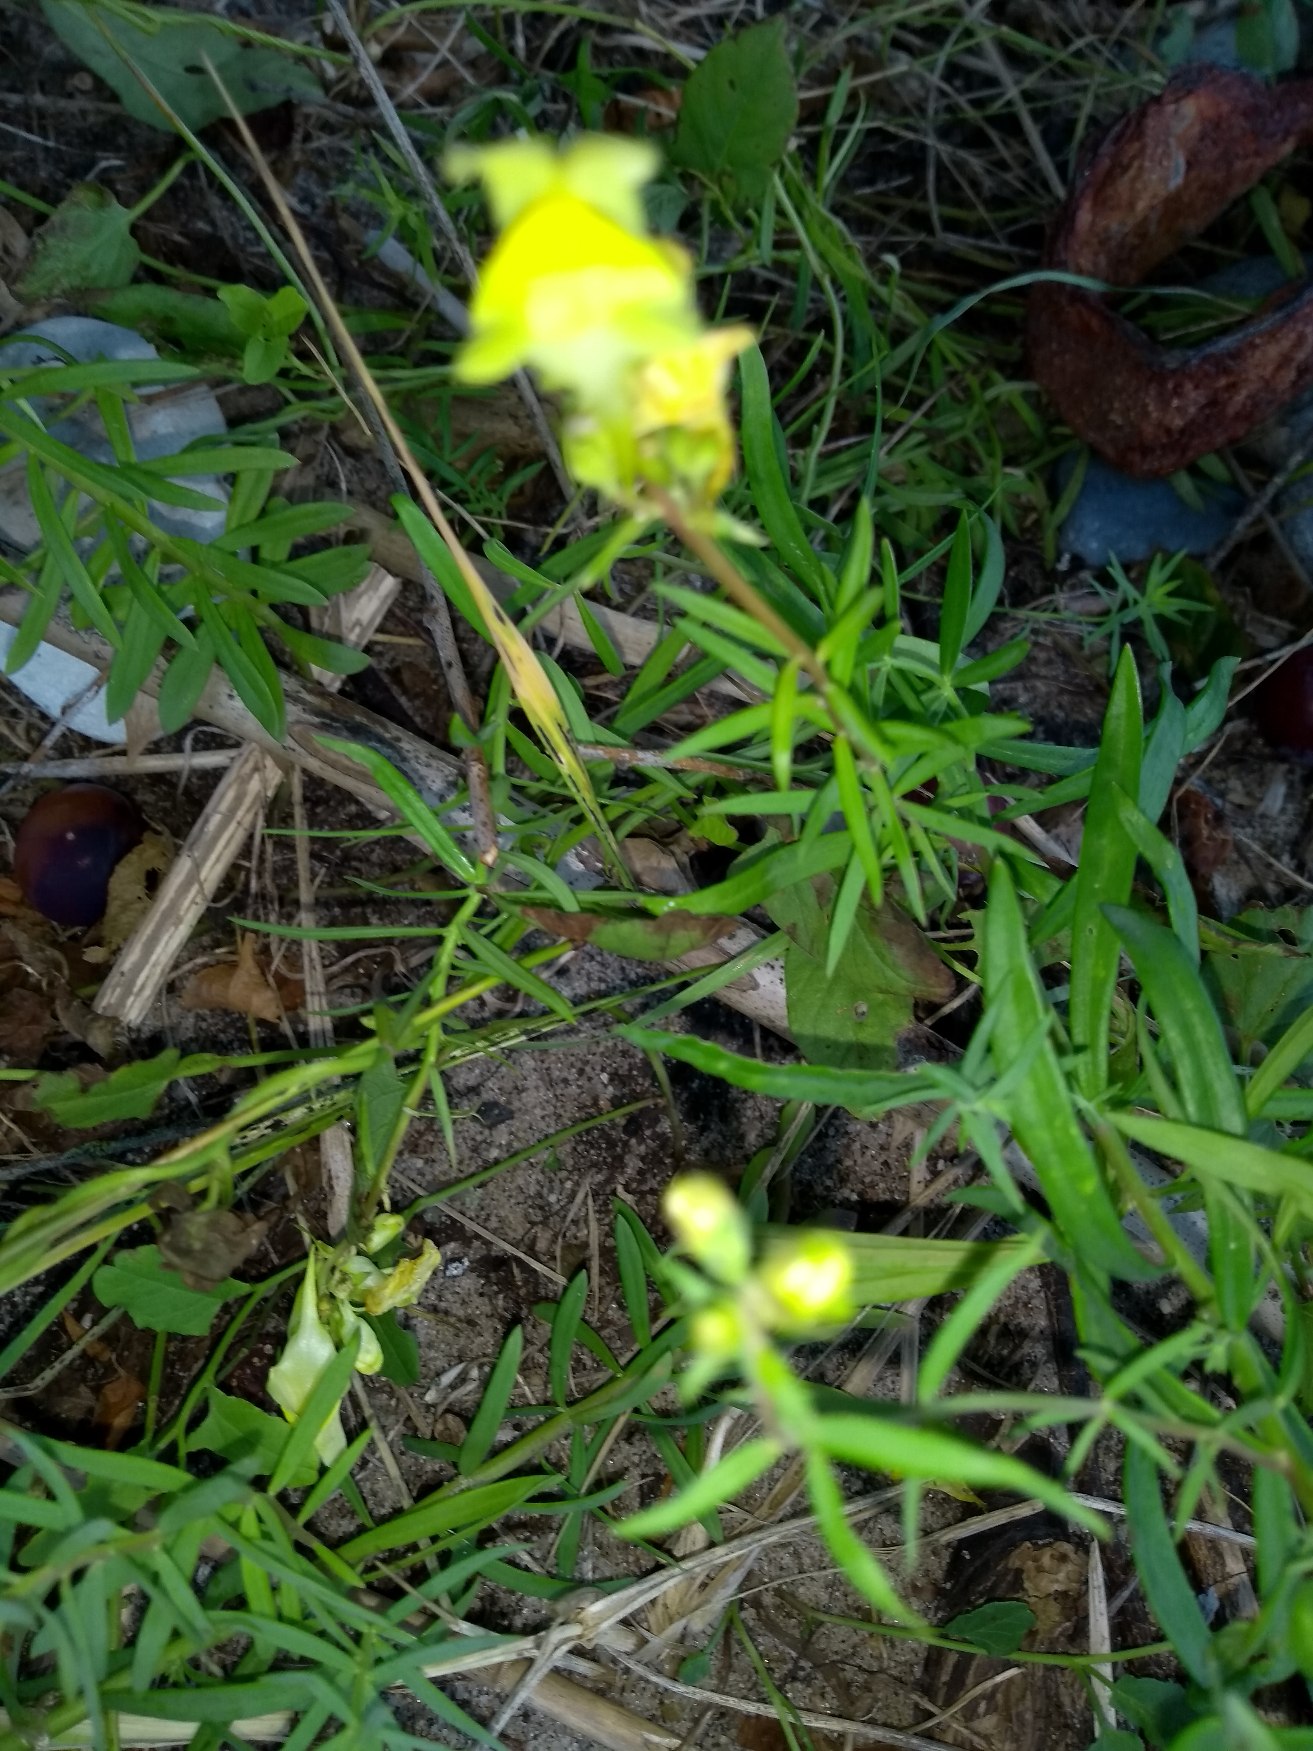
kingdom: Plantae
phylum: Tracheophyta
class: Magnoliopsida
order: Lamiales
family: Plantaginaceae
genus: Linaria
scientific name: Linaria vulgaris
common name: Almindelig torskemund
